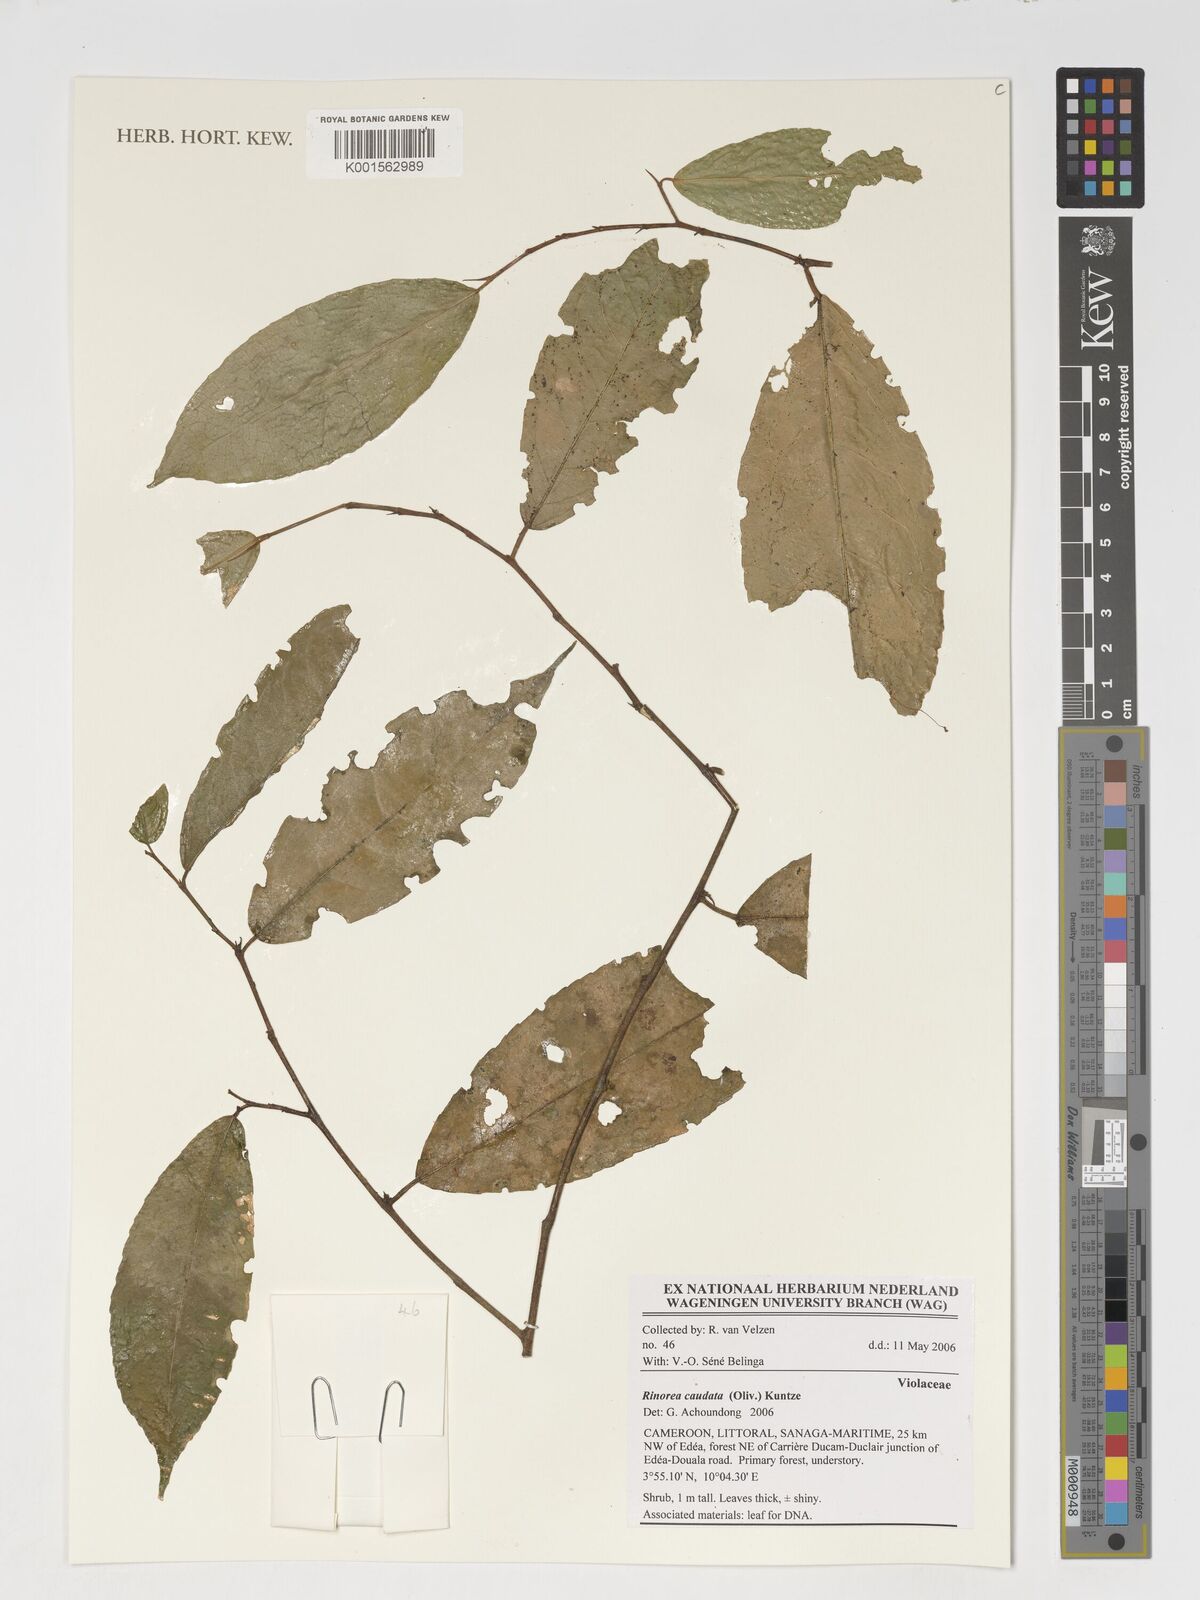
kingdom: Plantae
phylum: Tracheophyta
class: Magnoliopsida
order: Malpighiales
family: Violaceae
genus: Rinorea
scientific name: Rinorea caudata
